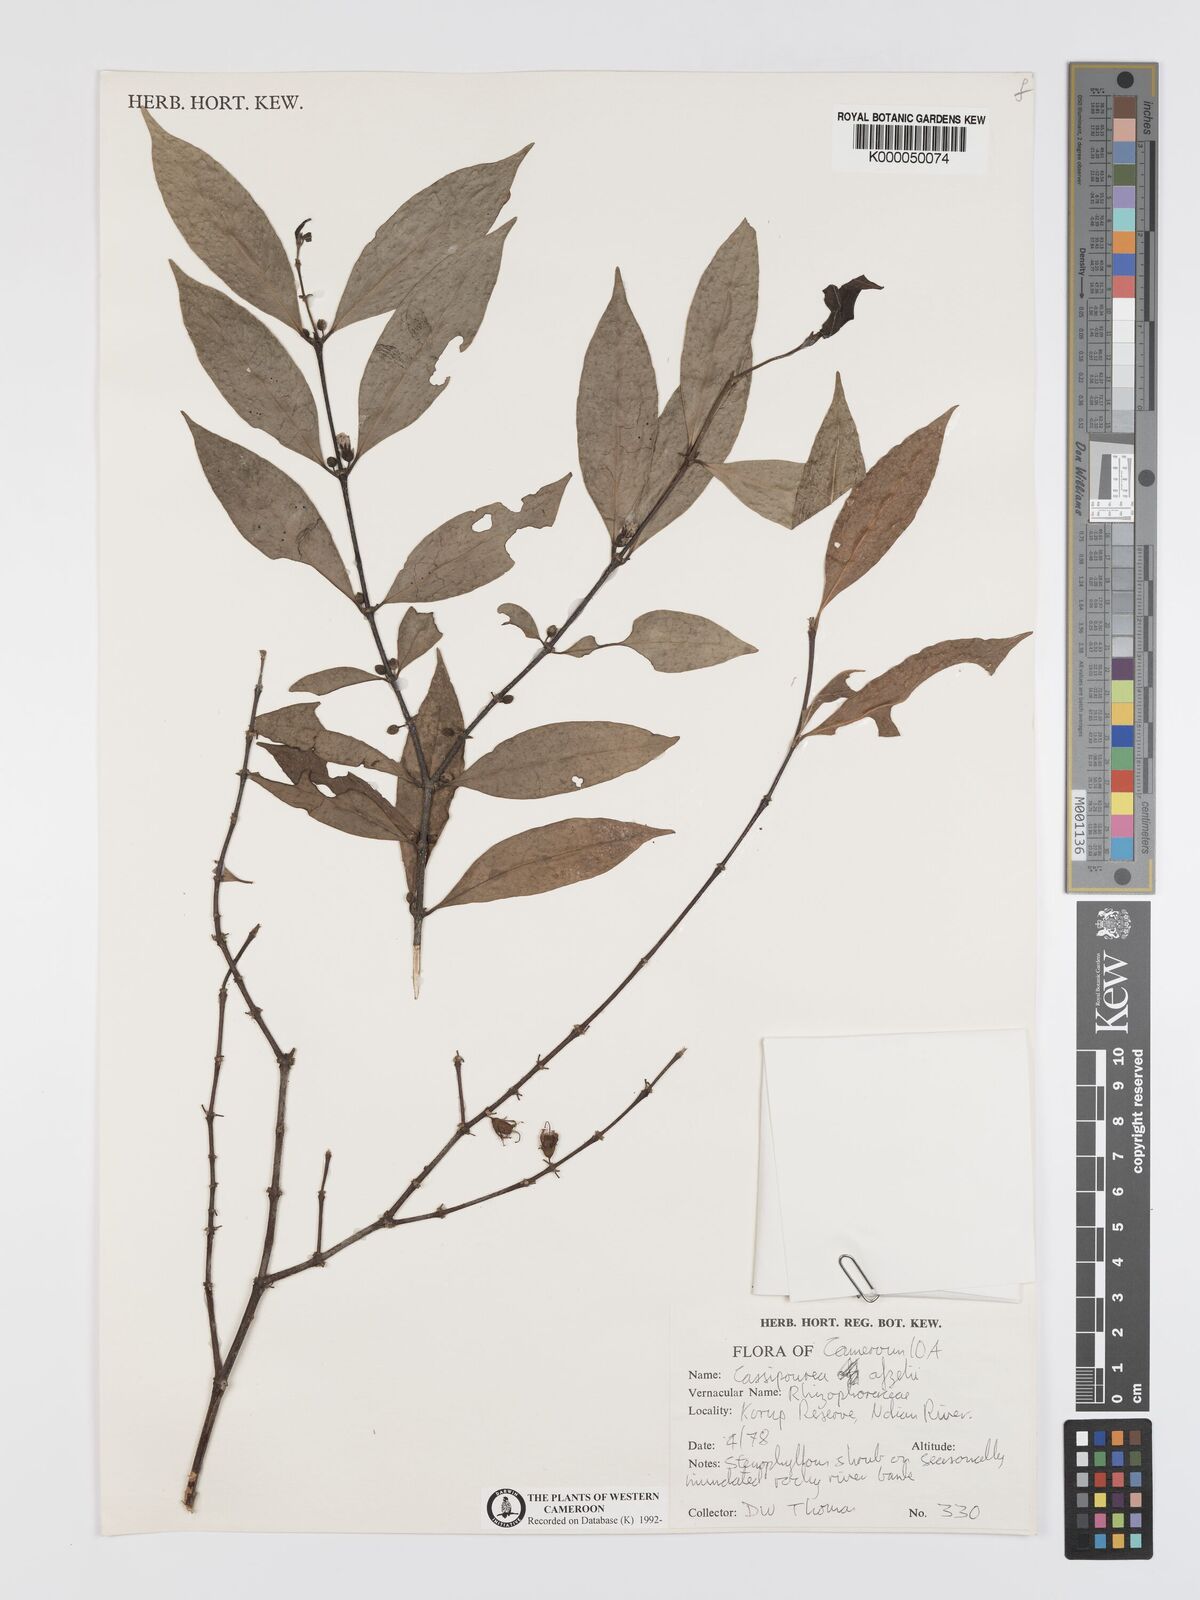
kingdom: Plantae
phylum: Tracheophyta
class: Magnoliopsida
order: Malpighiales
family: Rhizophoraceae
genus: Cassipourea
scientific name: Cassipourea afzelii
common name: Elephant tusk tree
